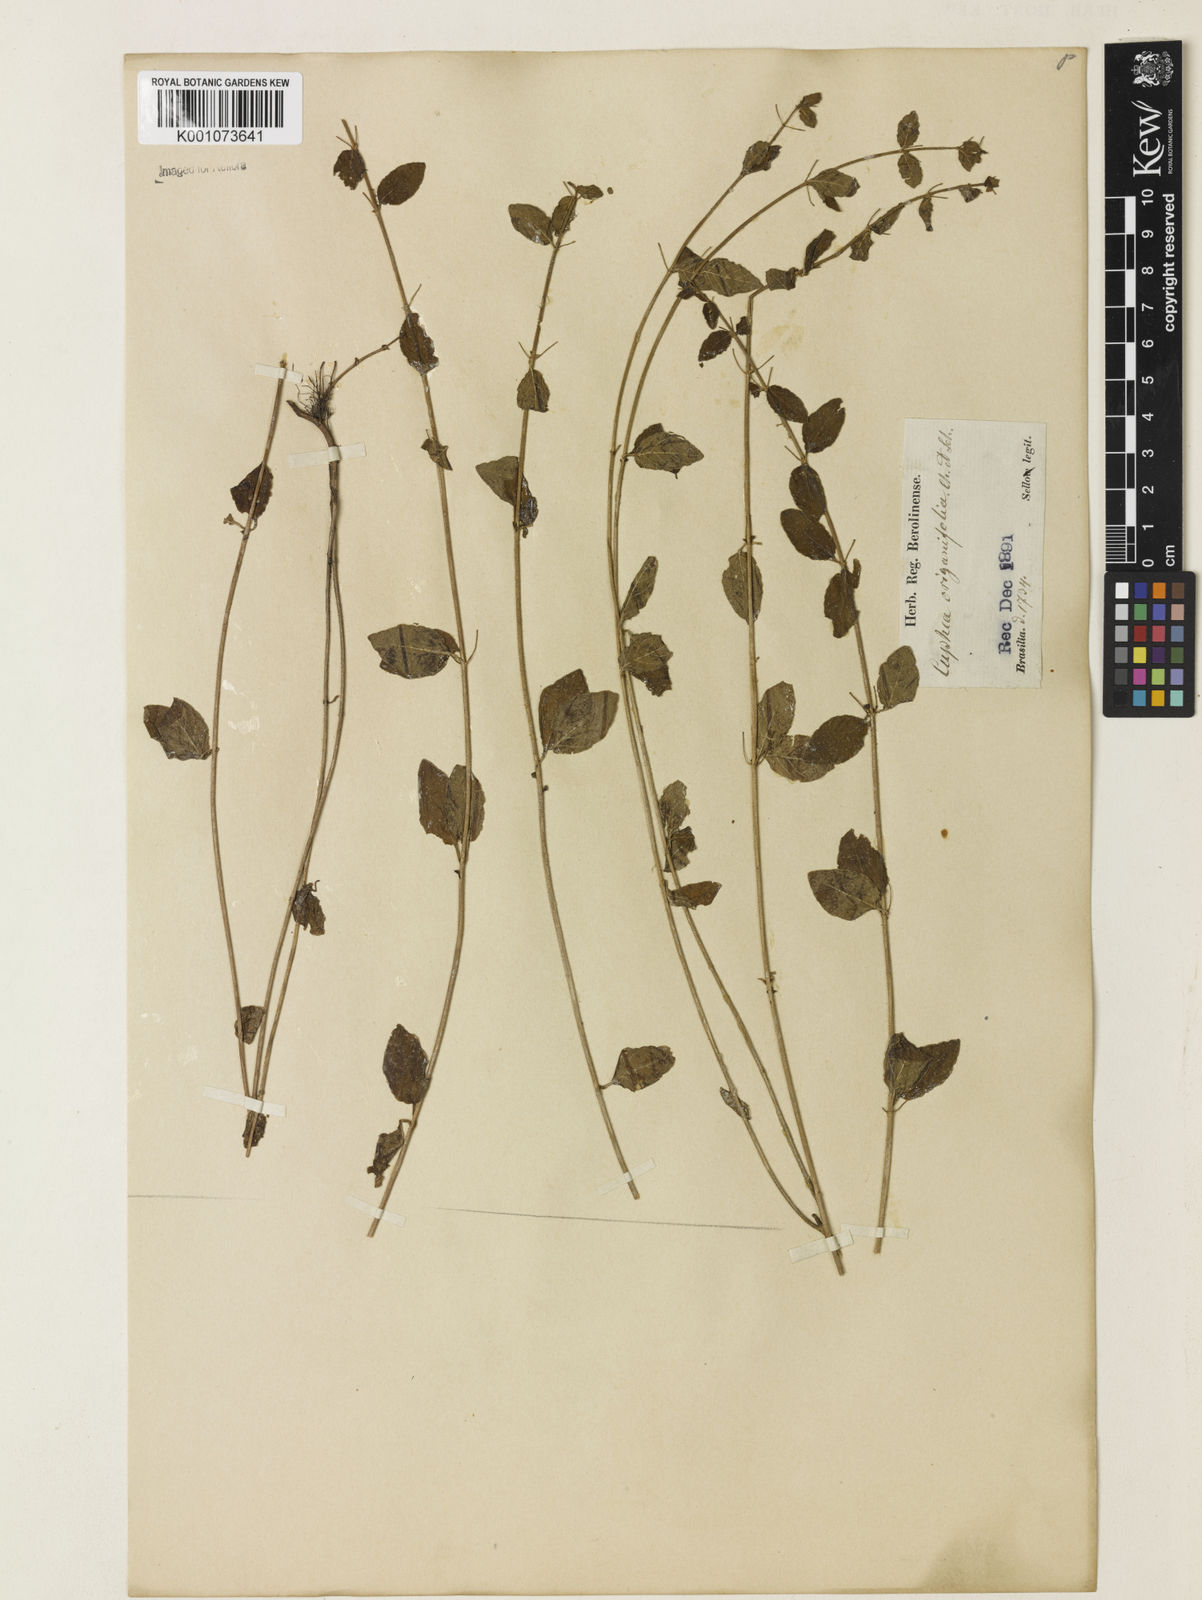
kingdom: Plantae
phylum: Tracheophyta
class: Magnoliopsida
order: Myrtales
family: Lythraceae
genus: Cuphea
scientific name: Cuphea racemosa
